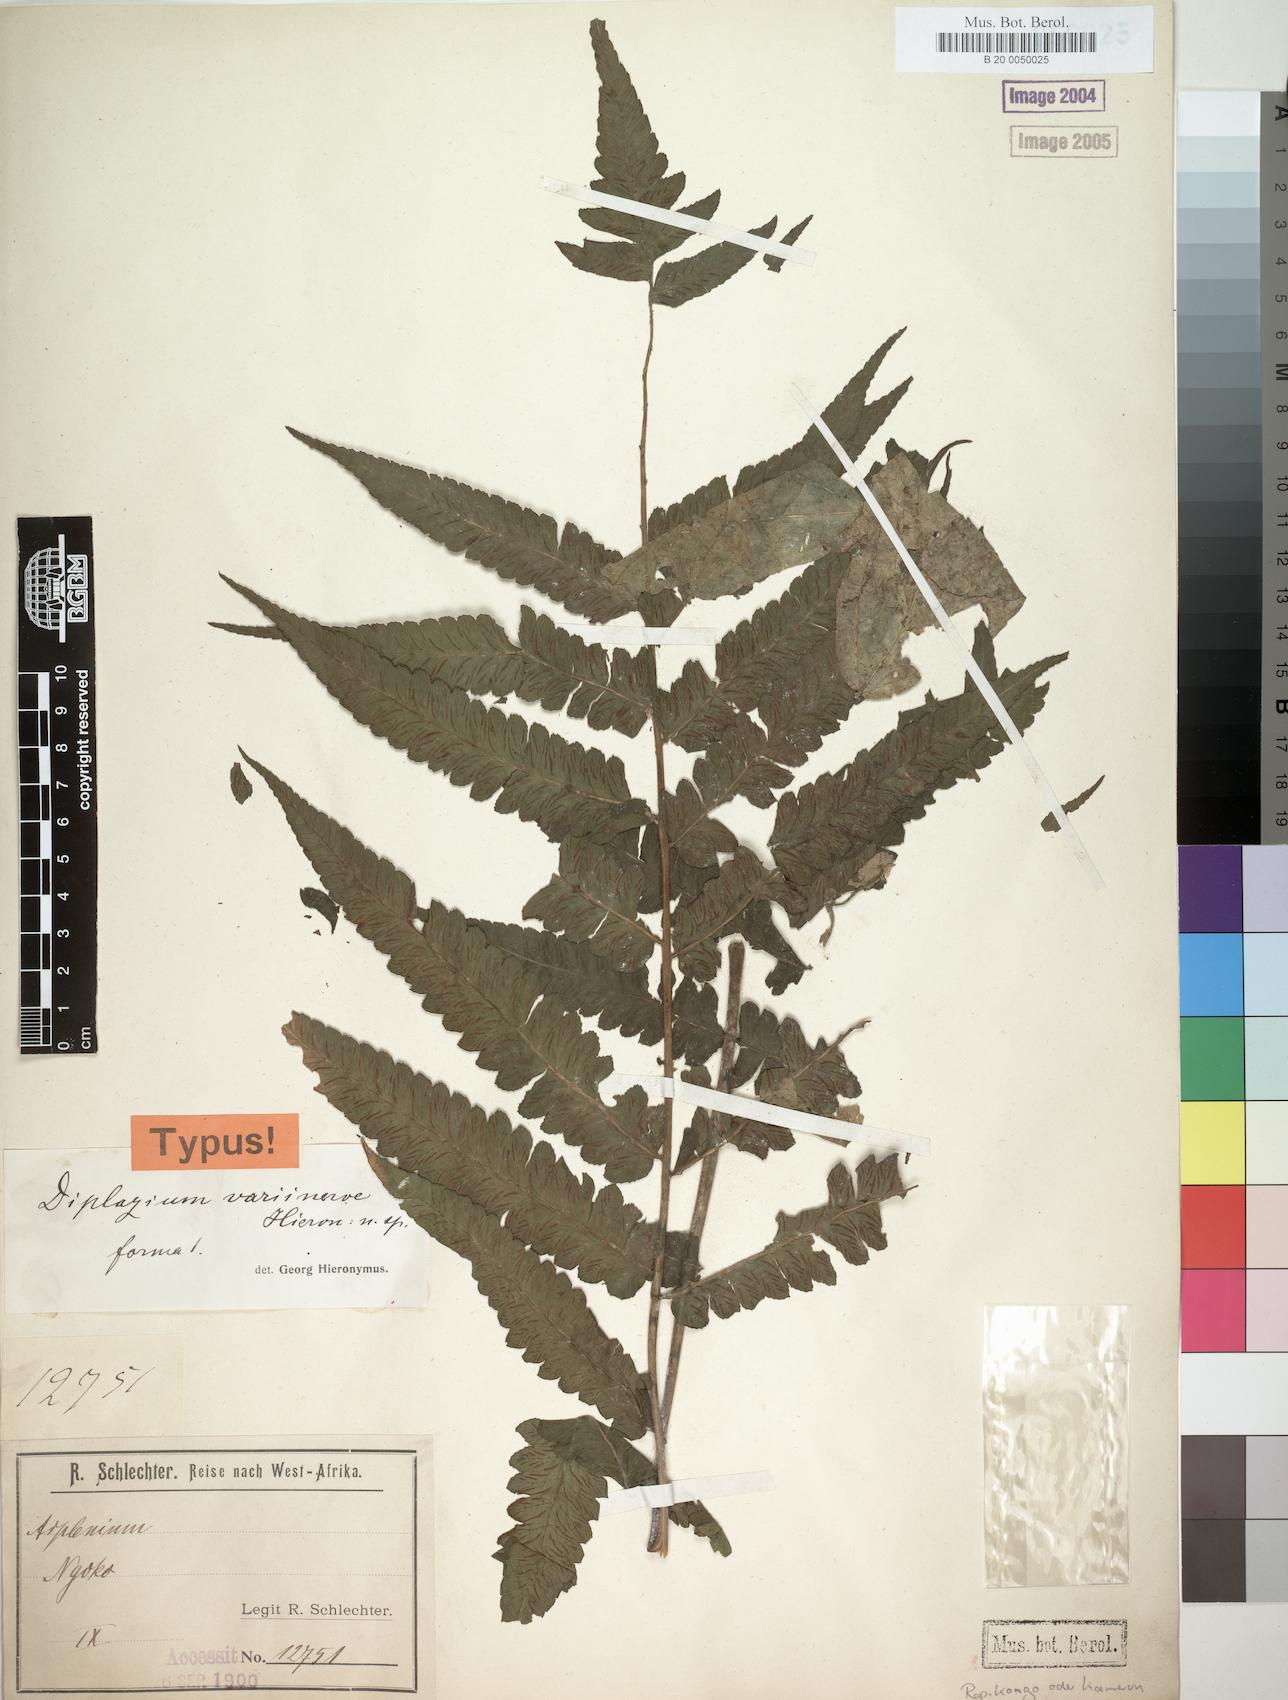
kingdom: Plantae
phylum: Tracheophyta
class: Polypodiopsida
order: Polypodiales
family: Athyriaceae
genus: Diplazium
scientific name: Diplazium welwitschii
